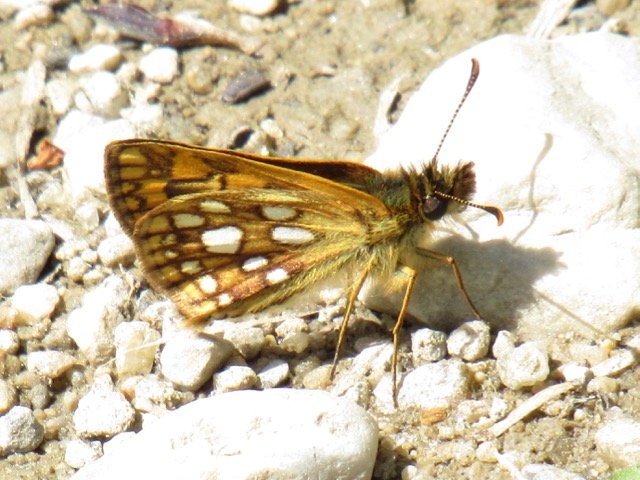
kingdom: Animalia
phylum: Arthropoda
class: Insecta
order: Lepidoptera
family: Hesperiidae
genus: Carterocephalus
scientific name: Carterocephalus palaemon
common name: Chequered Skipper
